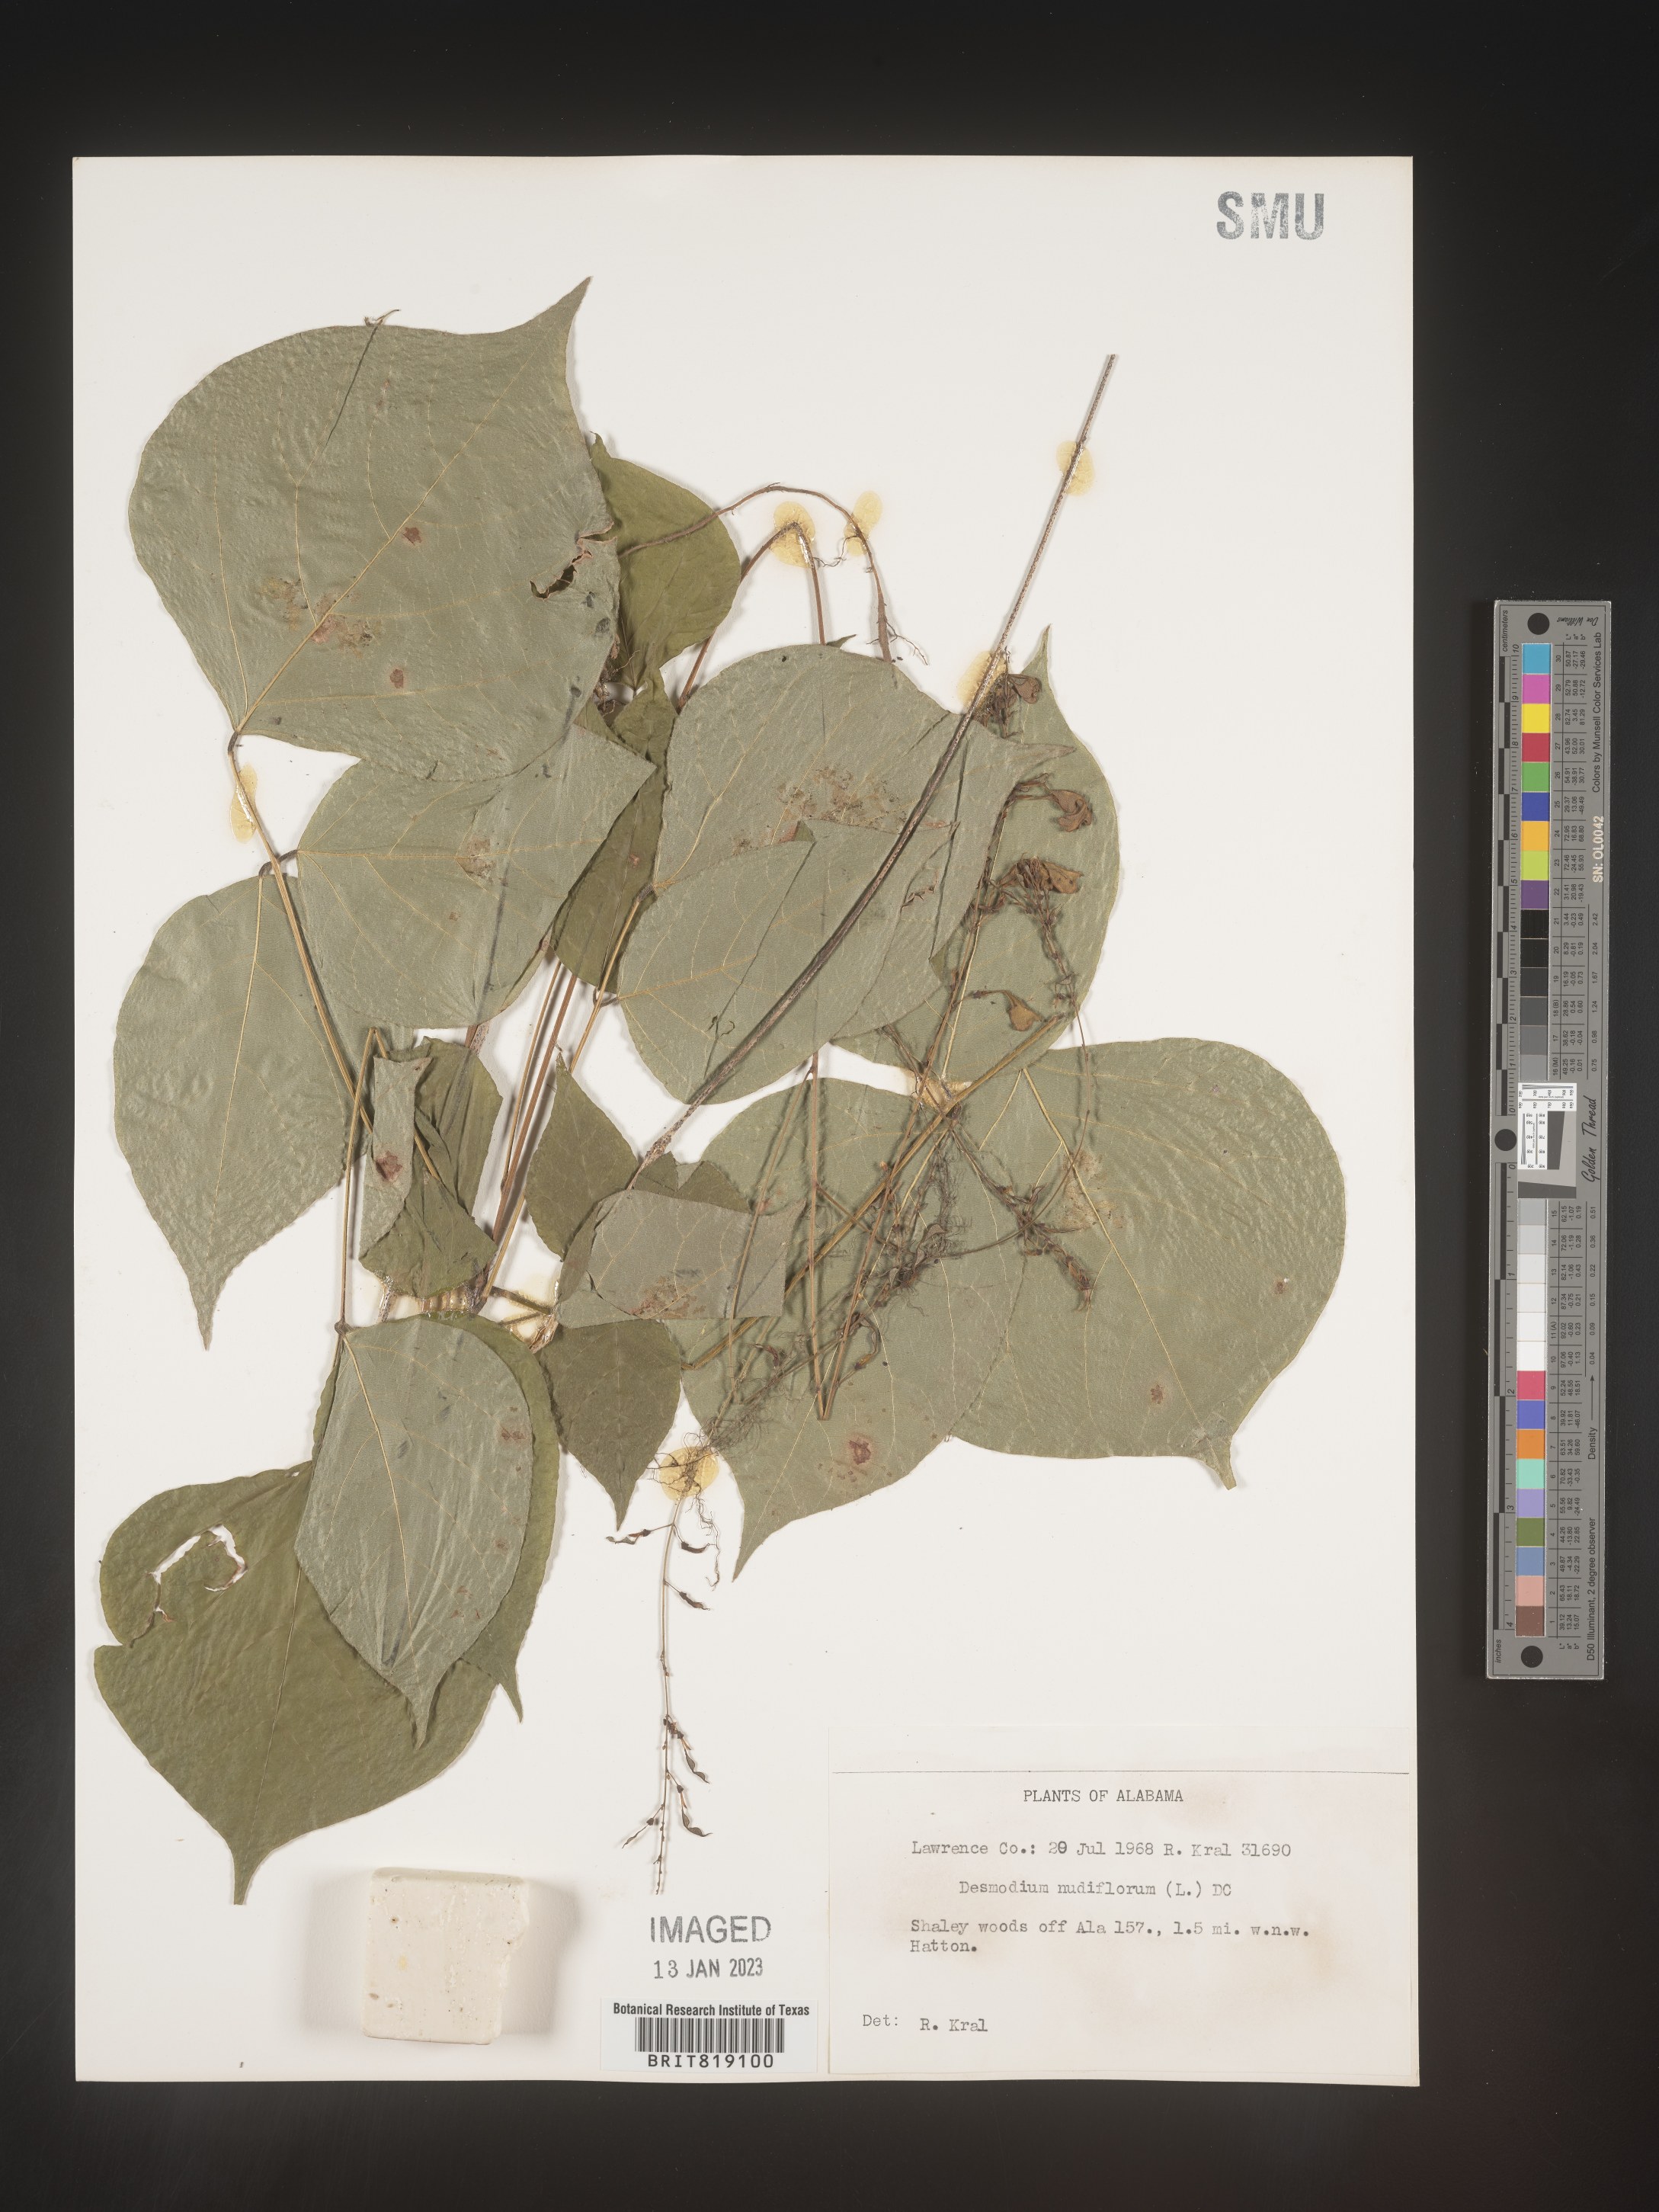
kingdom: Plantae
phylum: Tracheophyta
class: Magnoliopsida
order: Fabales
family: Fabaceae
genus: Hylodesmum
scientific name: Hylodesmum nudiflorum
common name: Bare-stemmed tick-trefoil
